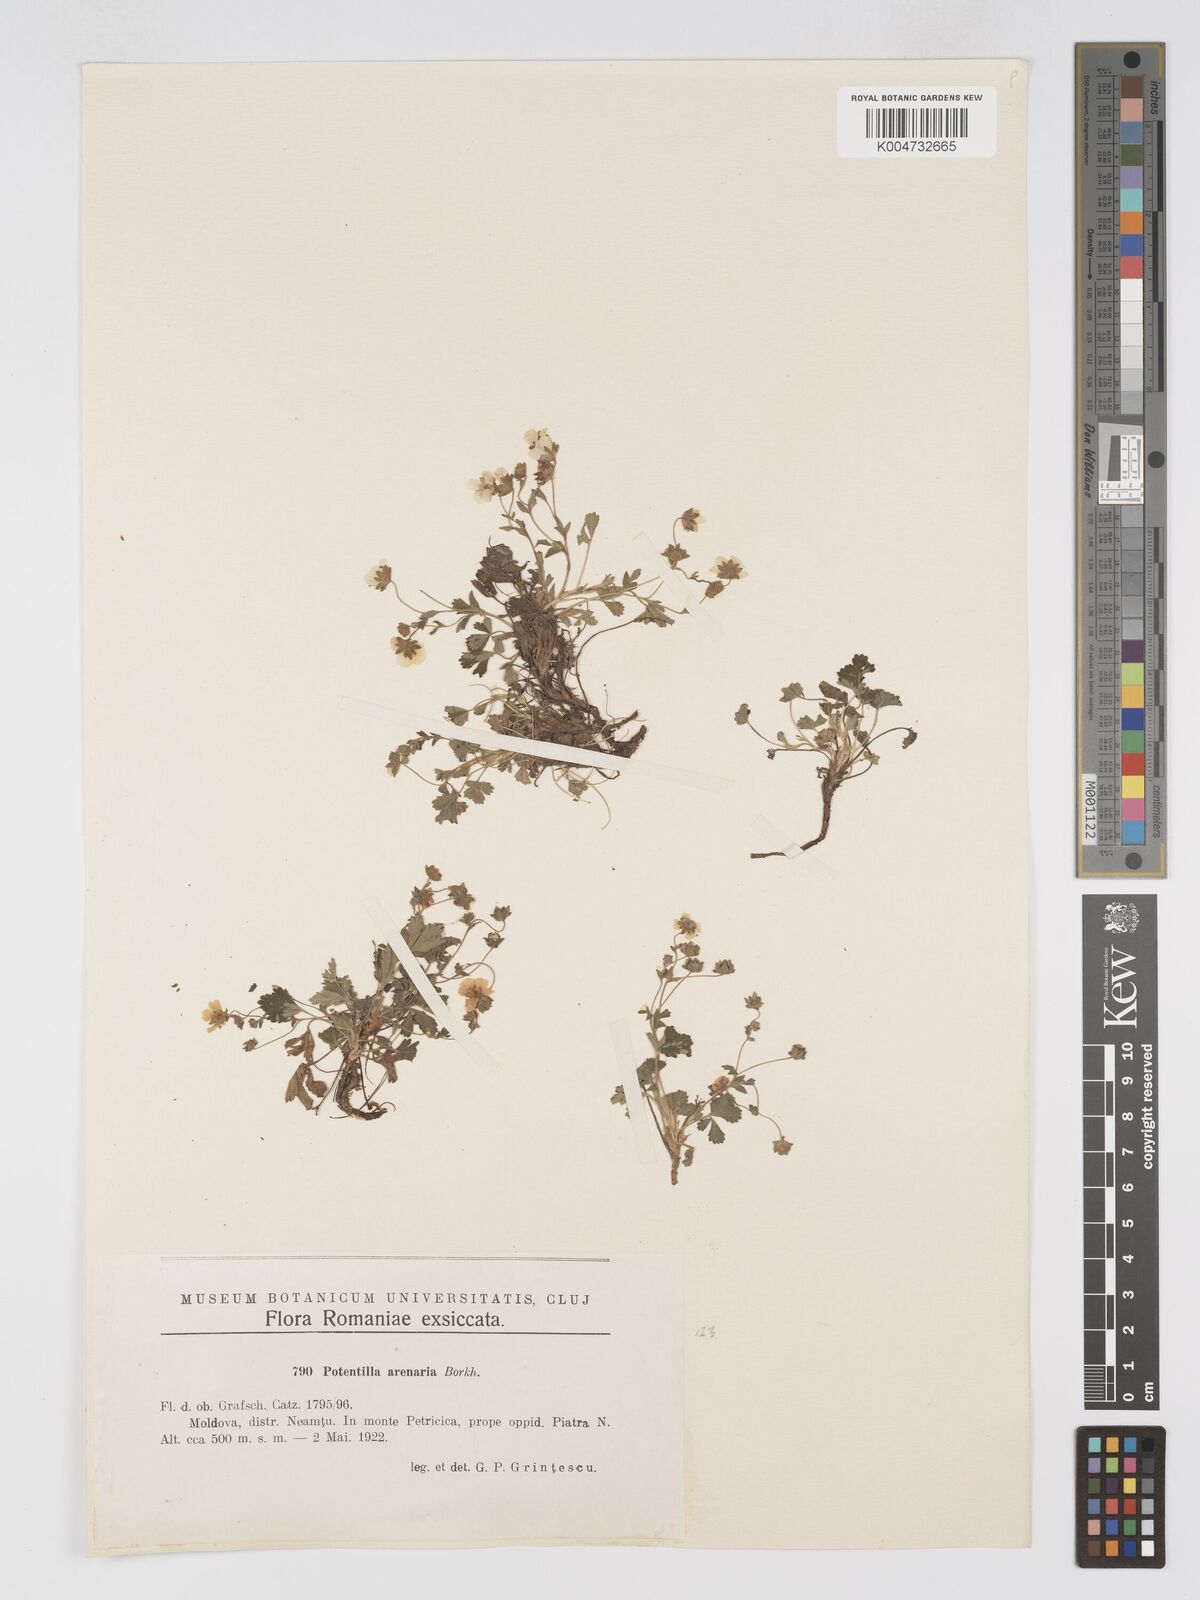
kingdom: Plantae
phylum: Tracheophyta
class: Magnoliopsida
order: Rosales
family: Rosaceae
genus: Potentilla
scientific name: Potentilla cinerea
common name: Ashy cinquefoil
